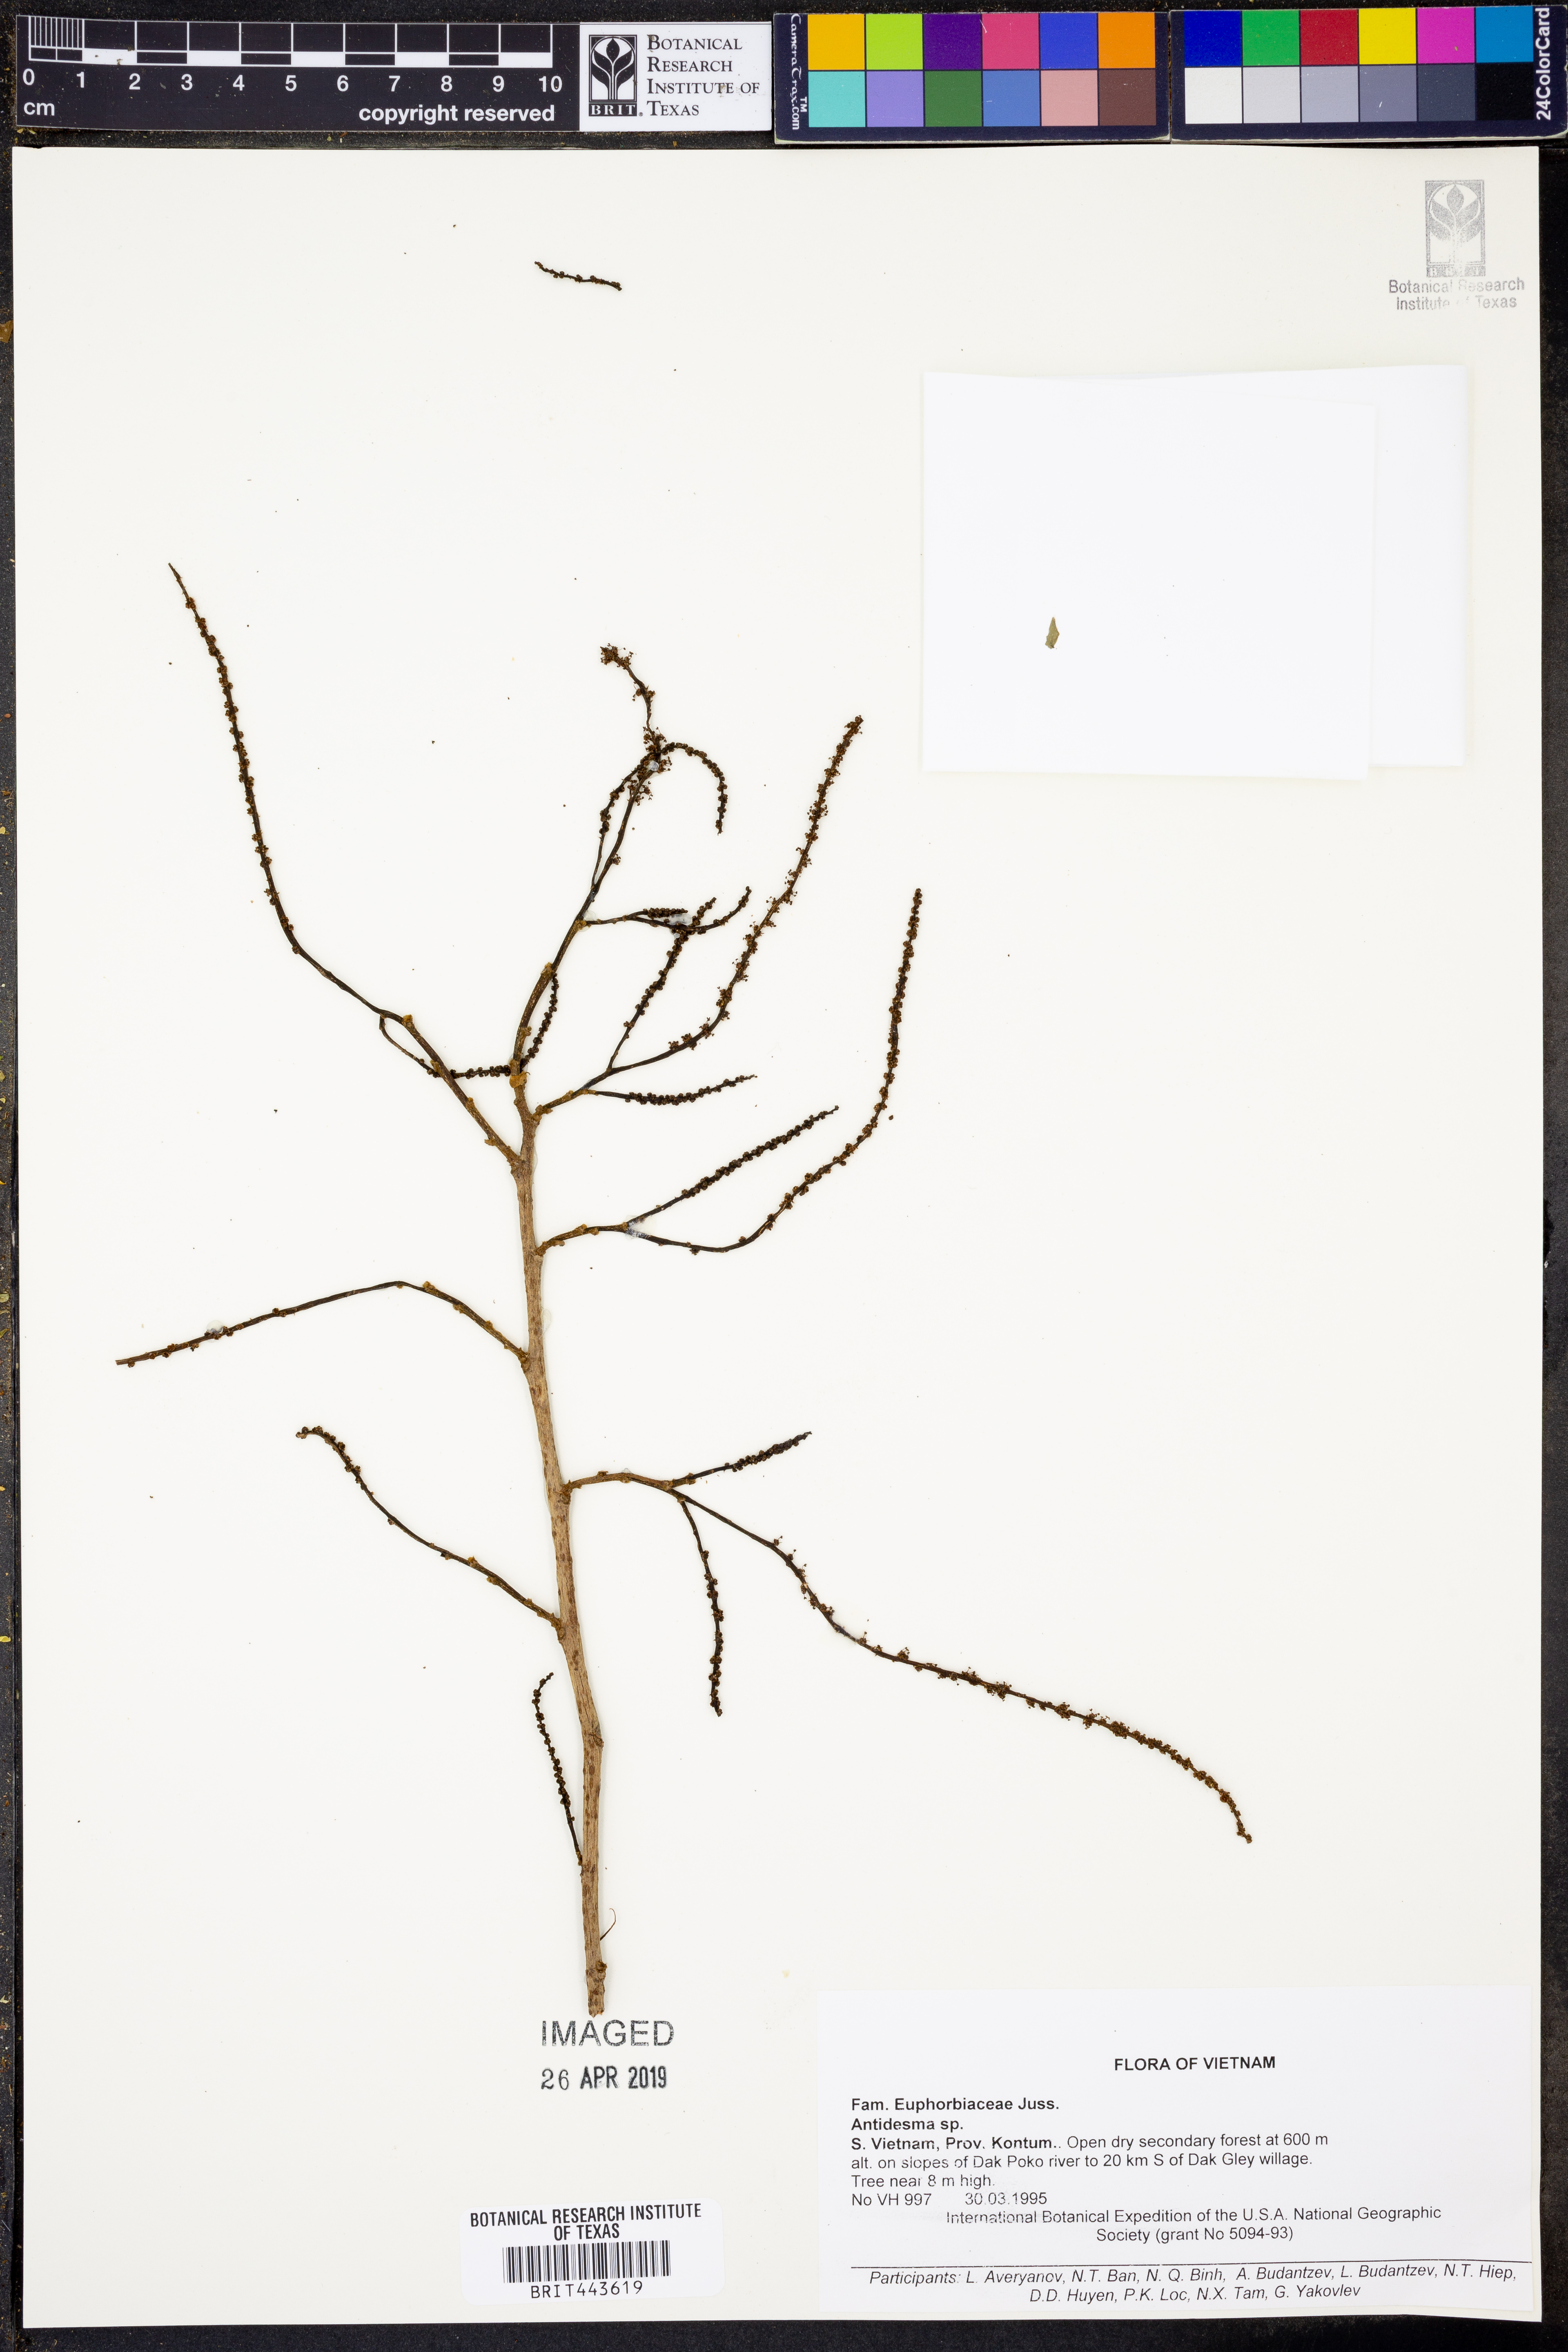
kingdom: Plantae
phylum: Tracheophyta
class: Magnoliopsida
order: Malpighiales
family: Phyllanthaceae
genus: Antidesma
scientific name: Antidesma
